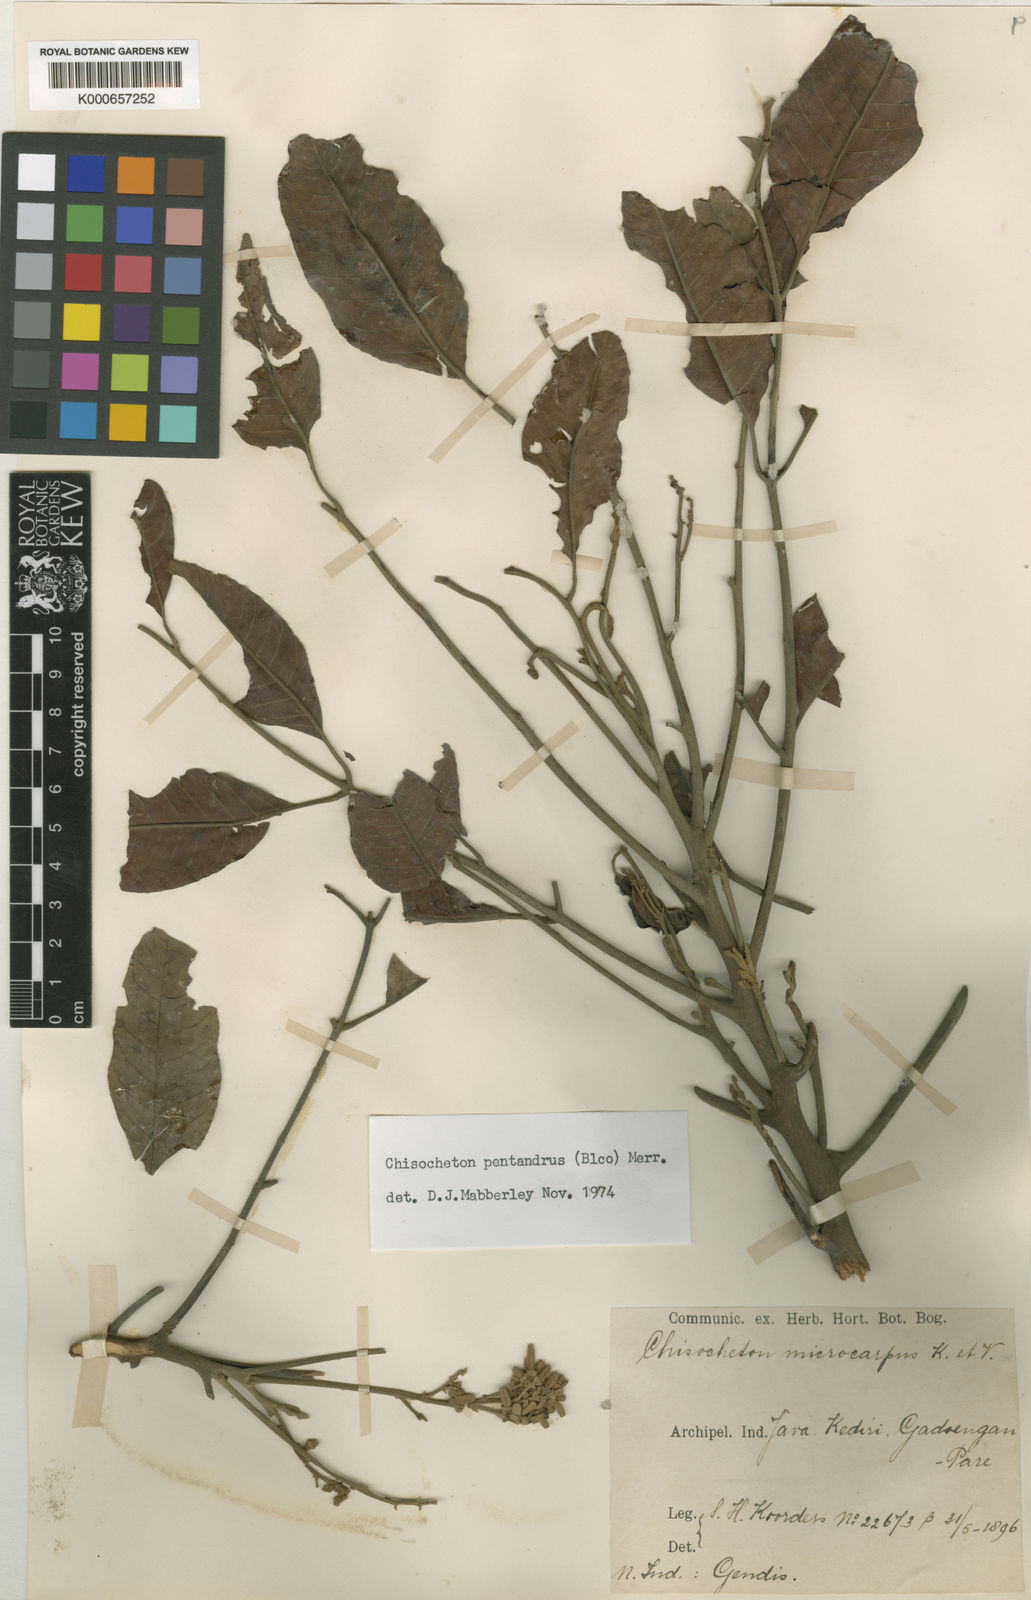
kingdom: Plantae
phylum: Tracheophyta
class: Magnoliopsida
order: Sapindales
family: Meliaceae
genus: Chisocheton
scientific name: Chisocheton pentandrus
